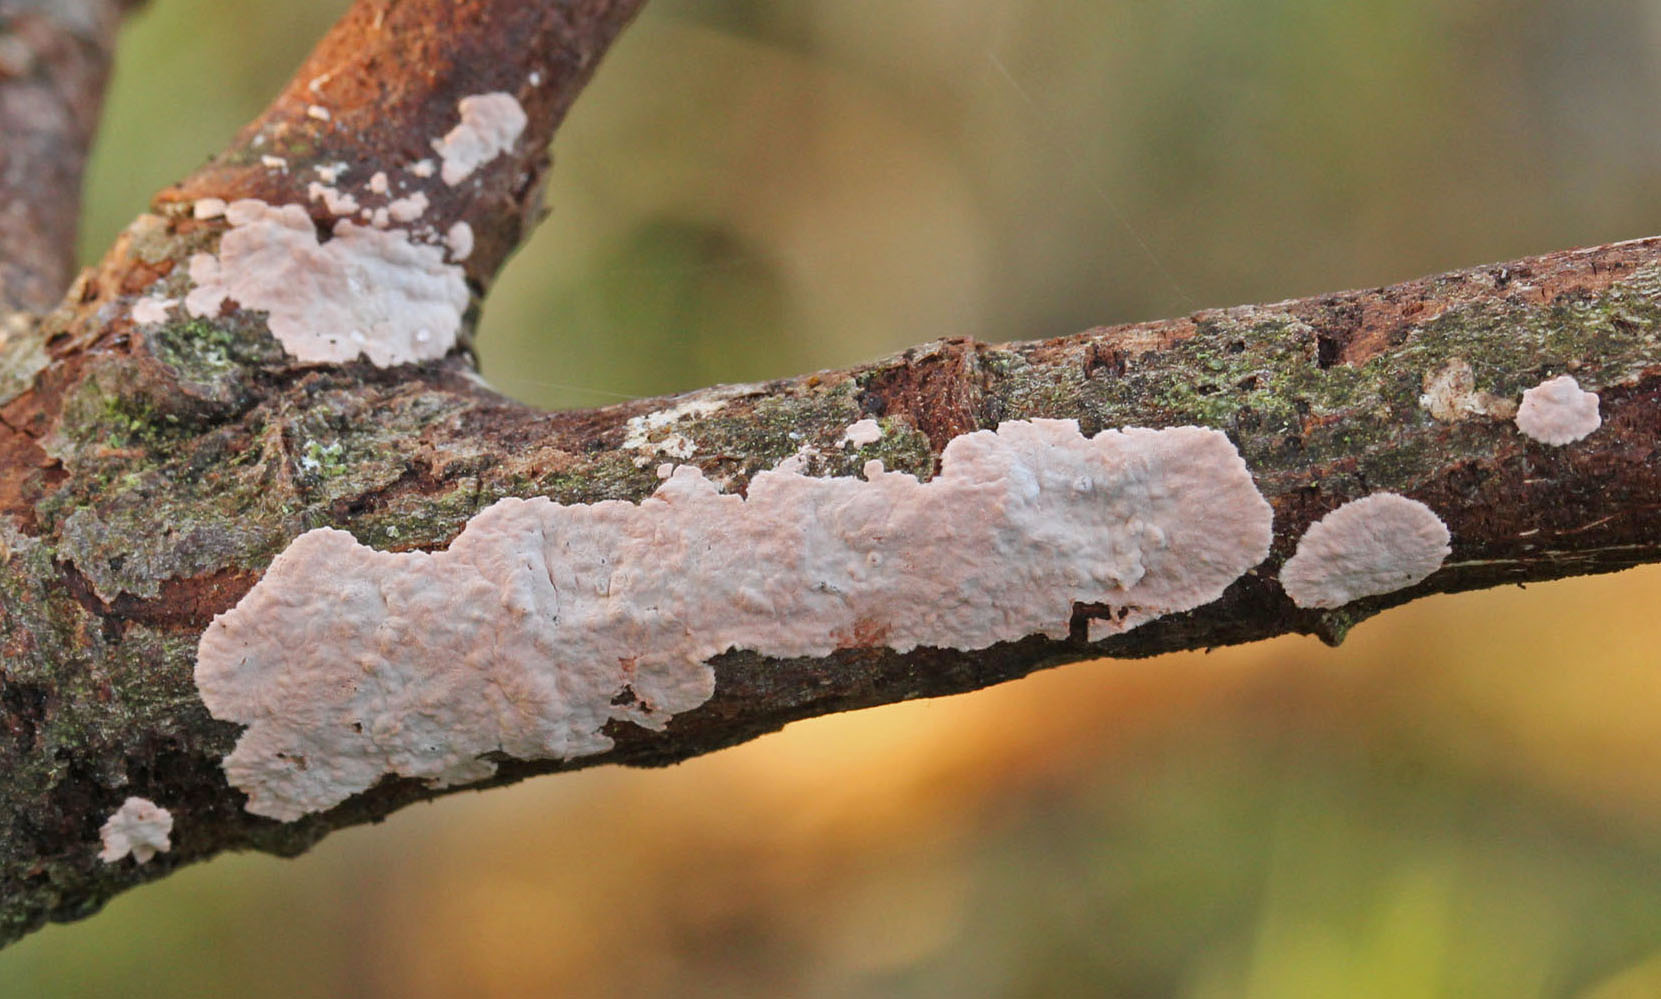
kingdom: Fungi
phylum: Basidiomycota
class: Agaricomycetes
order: Corticiales
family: Corticiaceae
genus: Corticium
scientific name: Corticium roseum
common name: rosa barkskind
